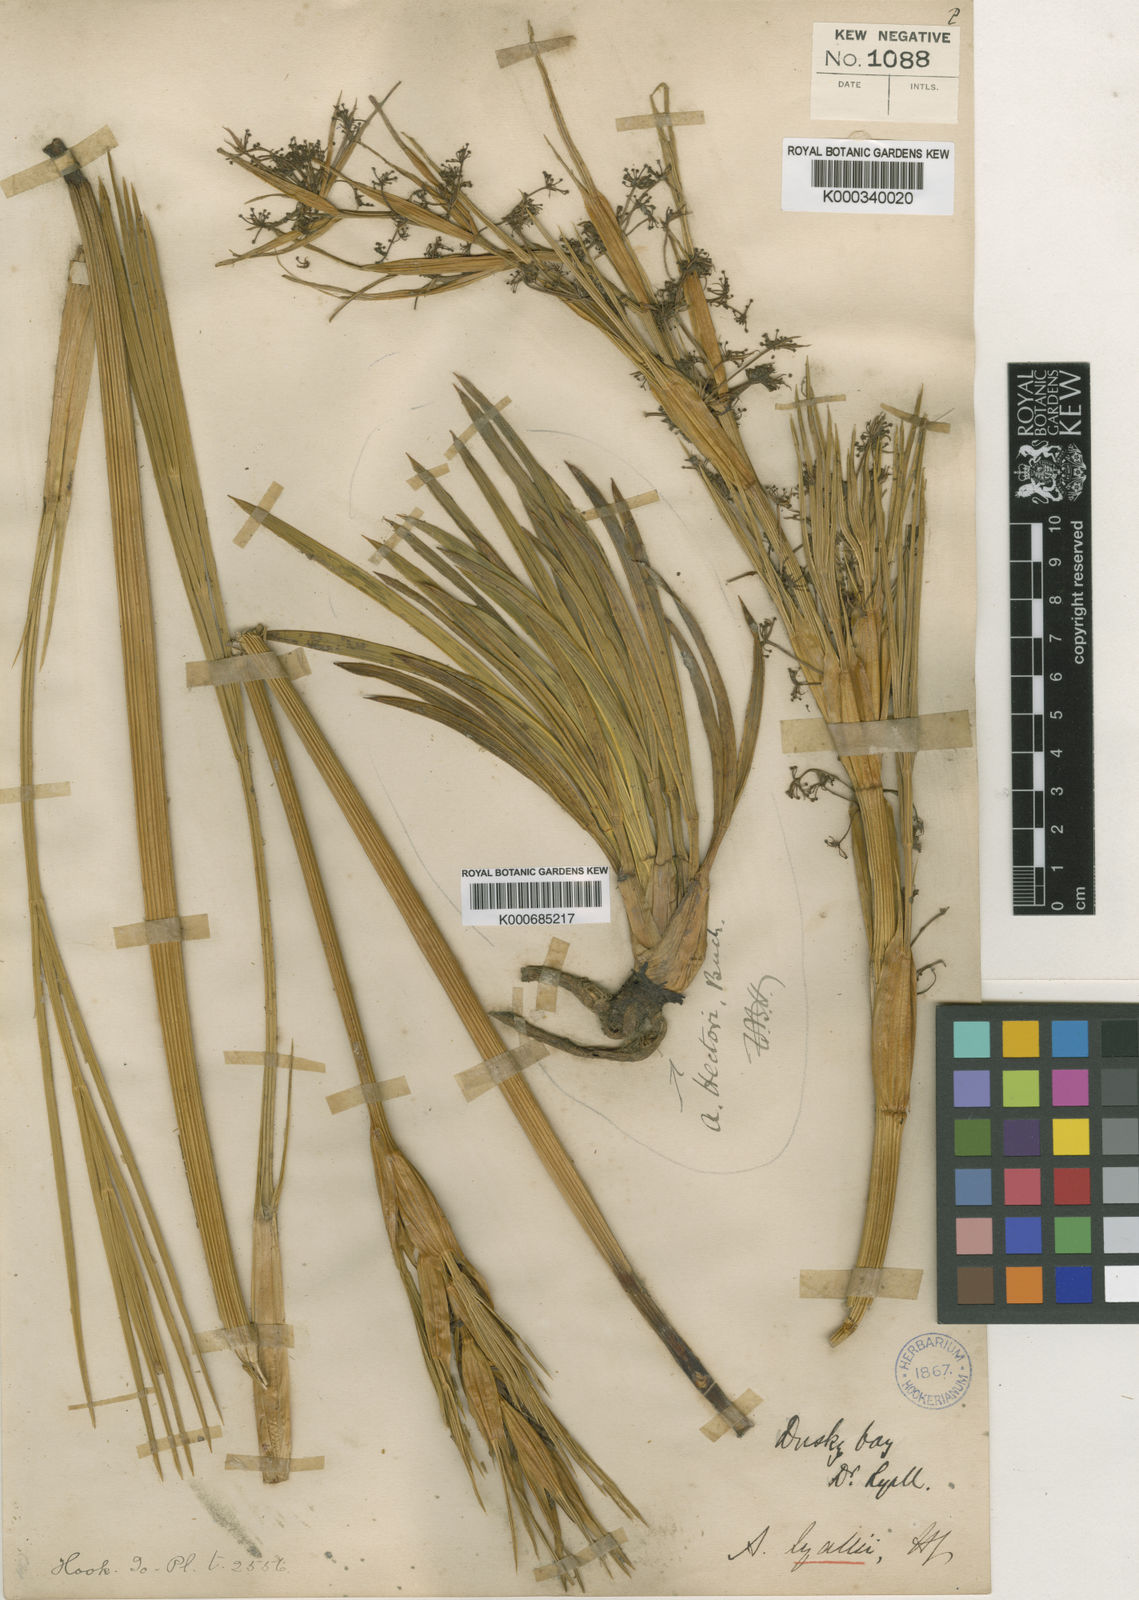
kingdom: Plantae
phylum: Tracheophyta
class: Magnoliopsida
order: Apiales
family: Apiaceae
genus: Aciphylla
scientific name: Aciphylla lyallii
